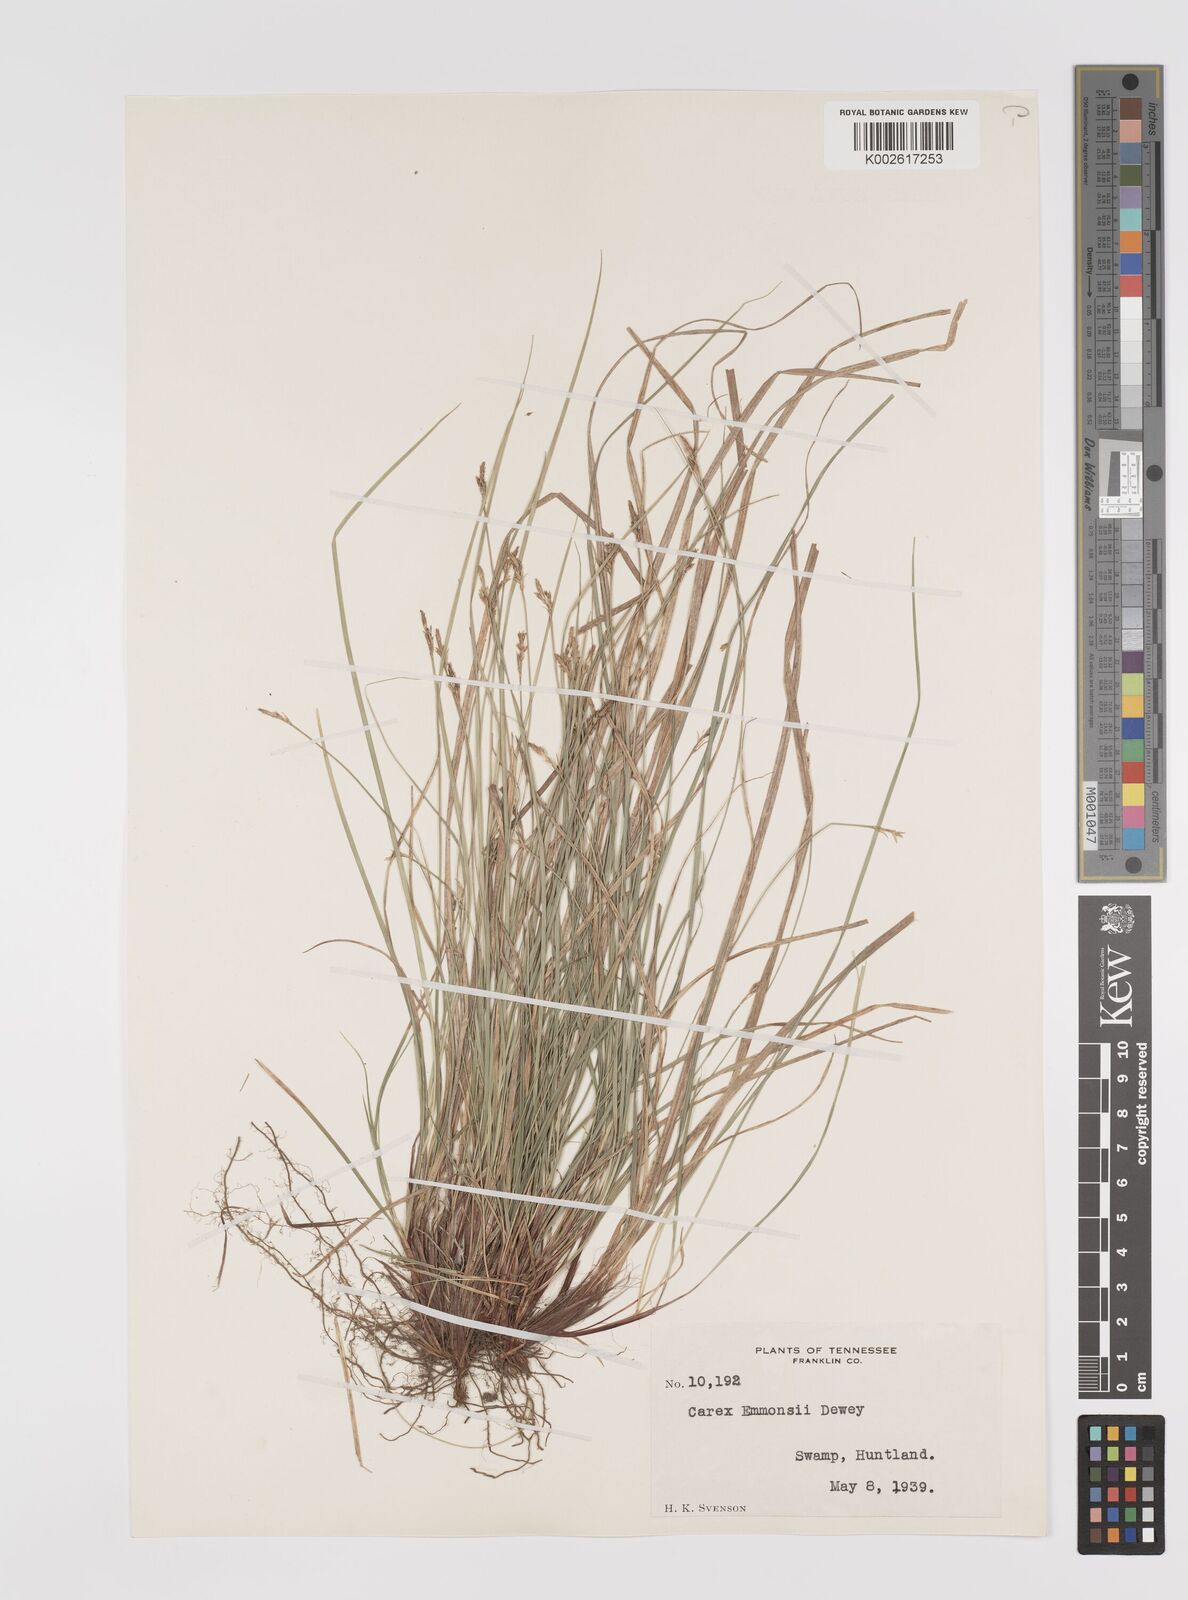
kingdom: Plantae
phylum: Tracheophyta
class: Liliopsida
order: Poales
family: Cyperaceae
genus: Carex
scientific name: Carex albicans
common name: Bellow-beaked sedge
